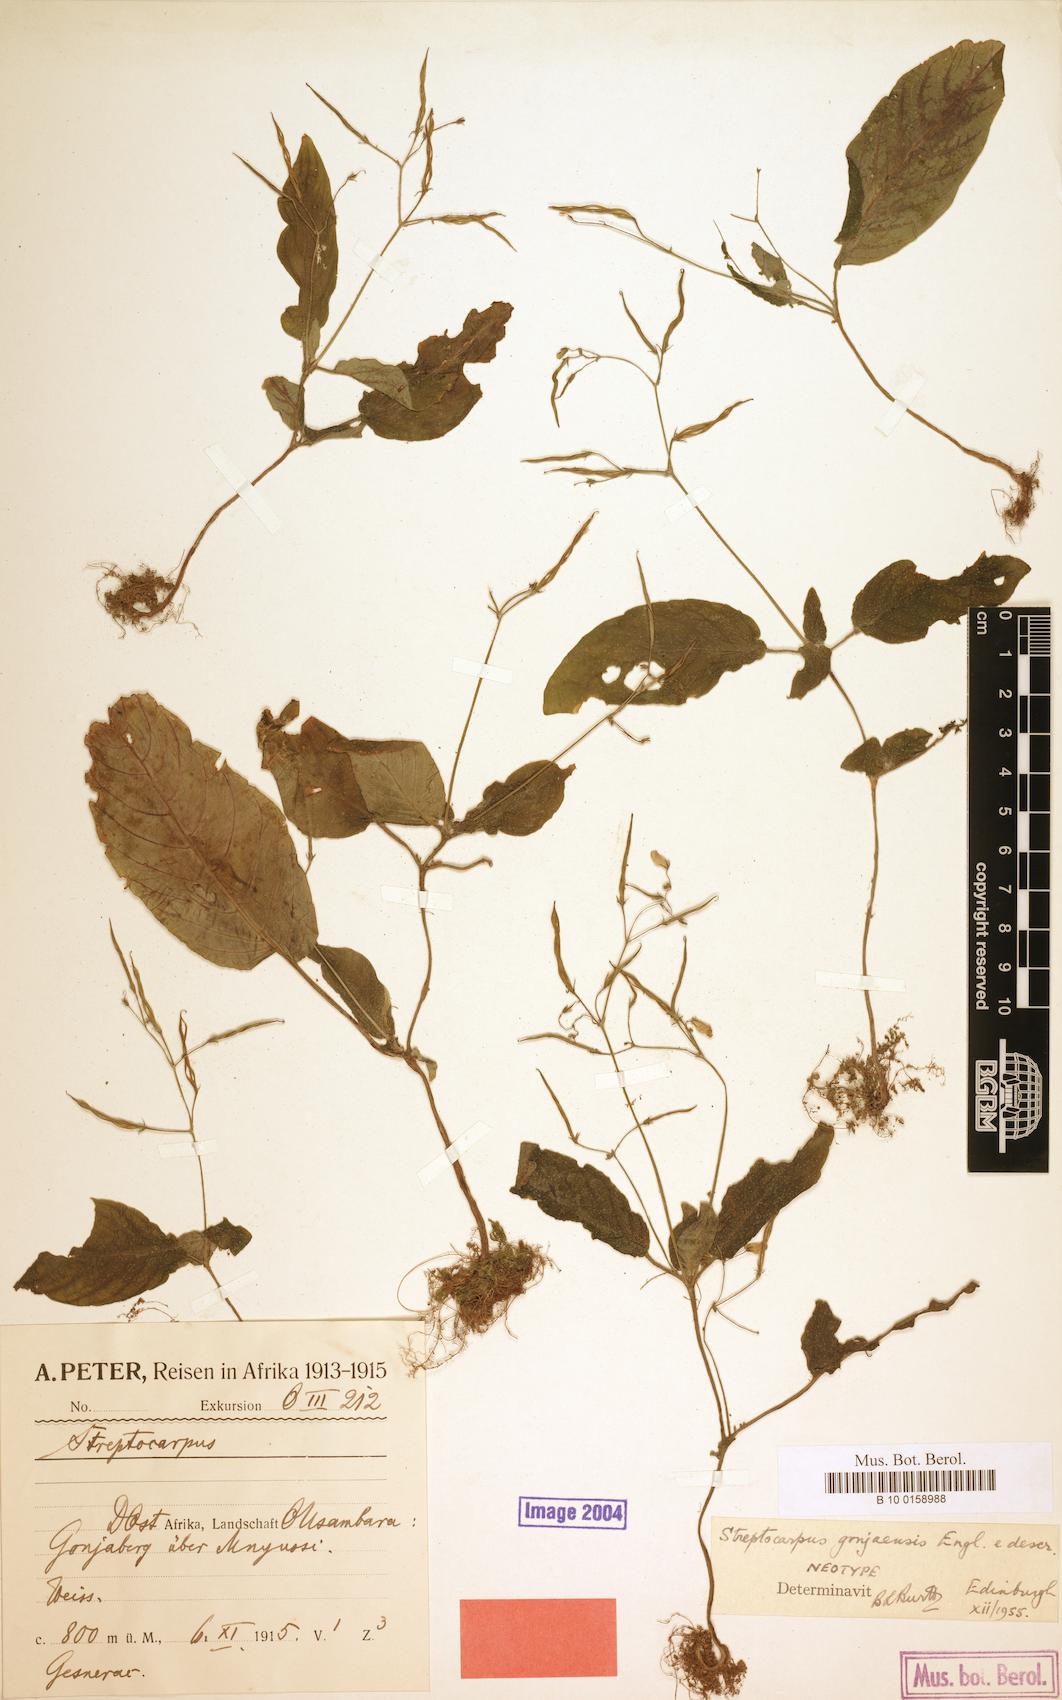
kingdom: Plantae
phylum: Tracheophyta
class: Magnoliopsida
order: Lamiales
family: Gesneriaceae
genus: Streptocarpus
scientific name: Streptocarpus gonjaensis
